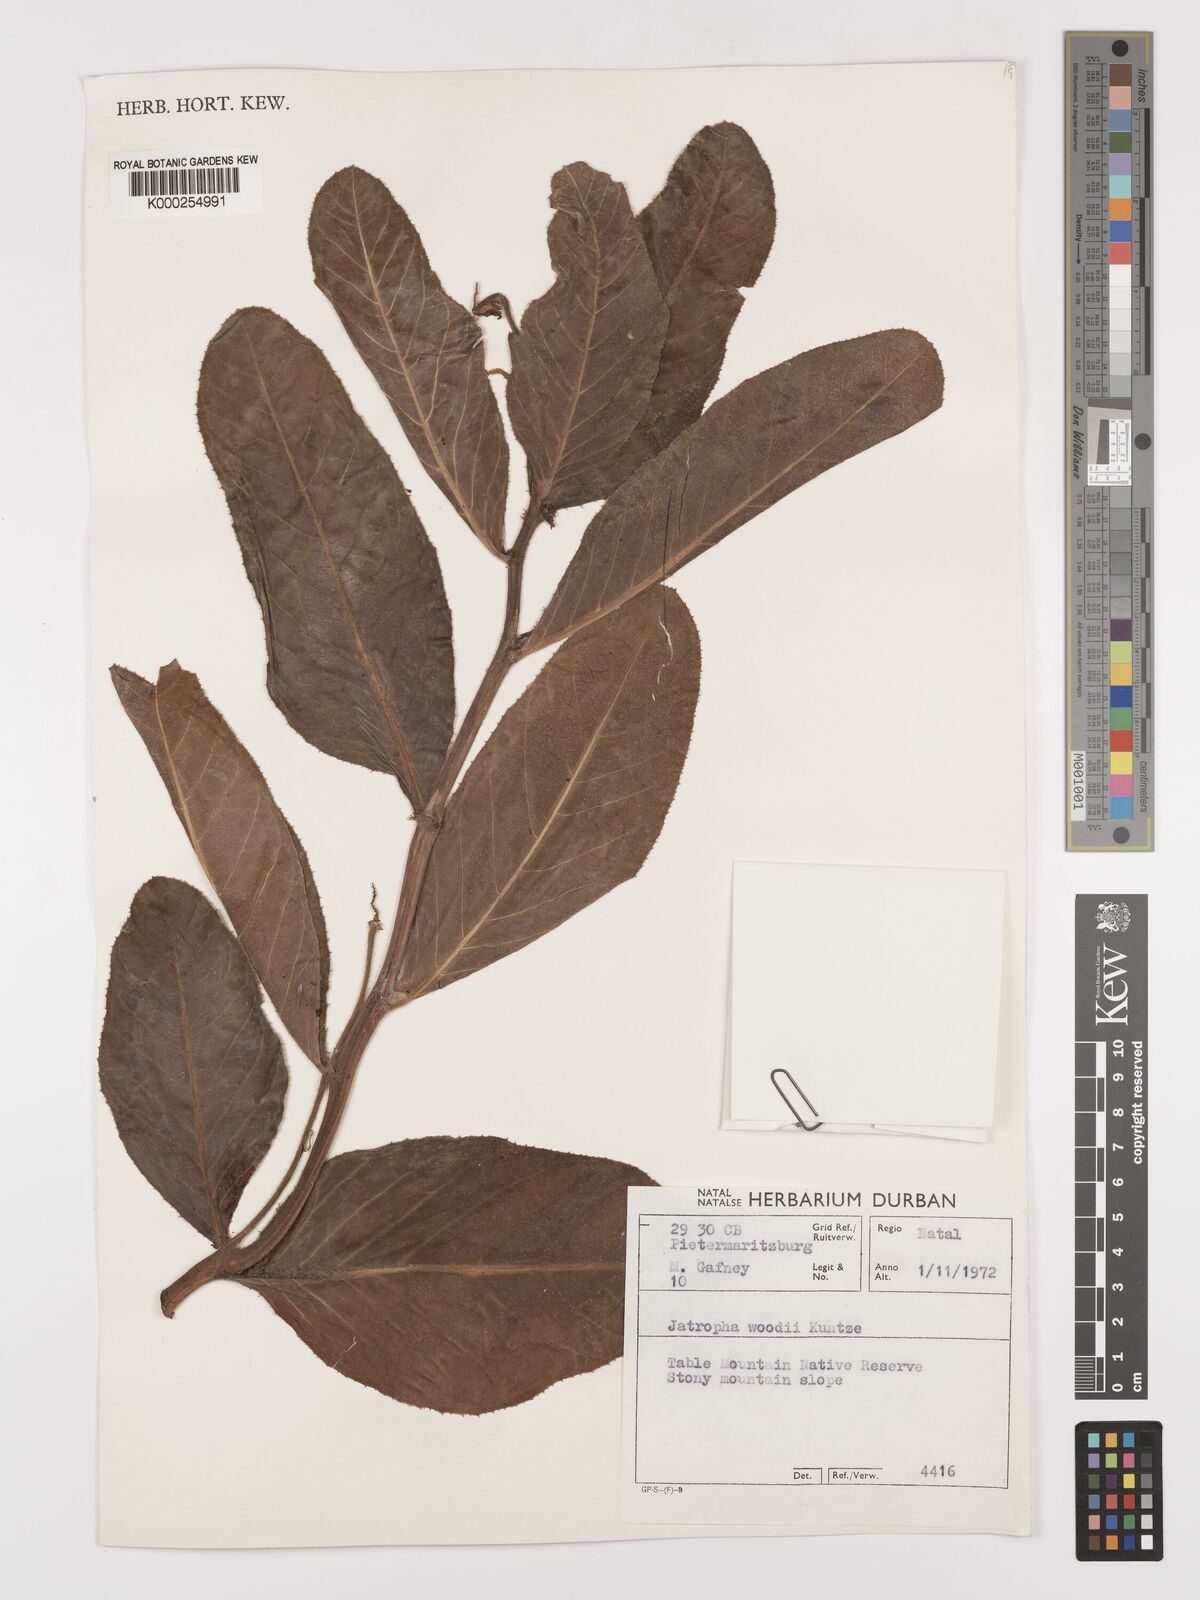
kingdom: Plantae
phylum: Tracheophyta
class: Magnoliopsida
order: Malpighiales
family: Euphorbiaceae
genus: Jatropha
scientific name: Jatropha woodii
